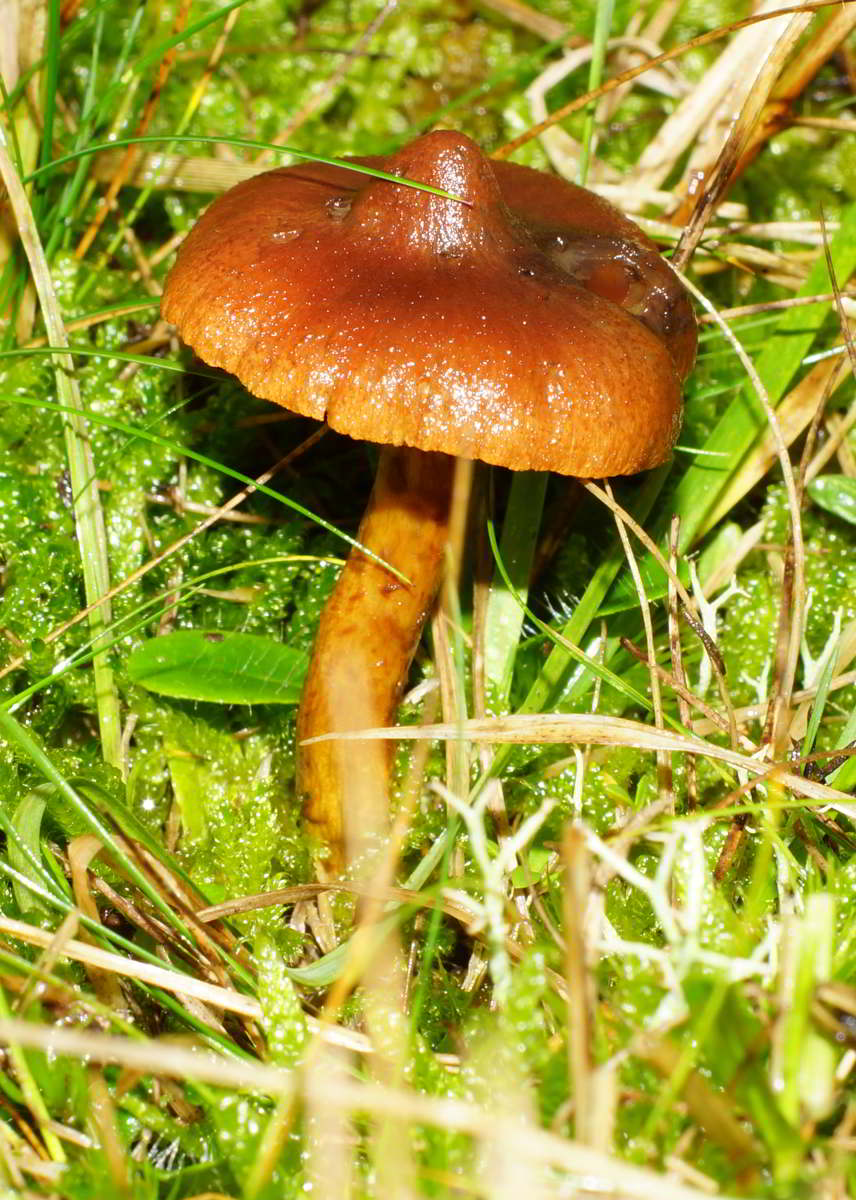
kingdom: Fungi
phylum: Basidiomycota
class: Agaricomycetes
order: Agaricales
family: Cortinariaceae
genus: Cortinarius
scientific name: Cortinarius pratensis
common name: hede-slørhat
